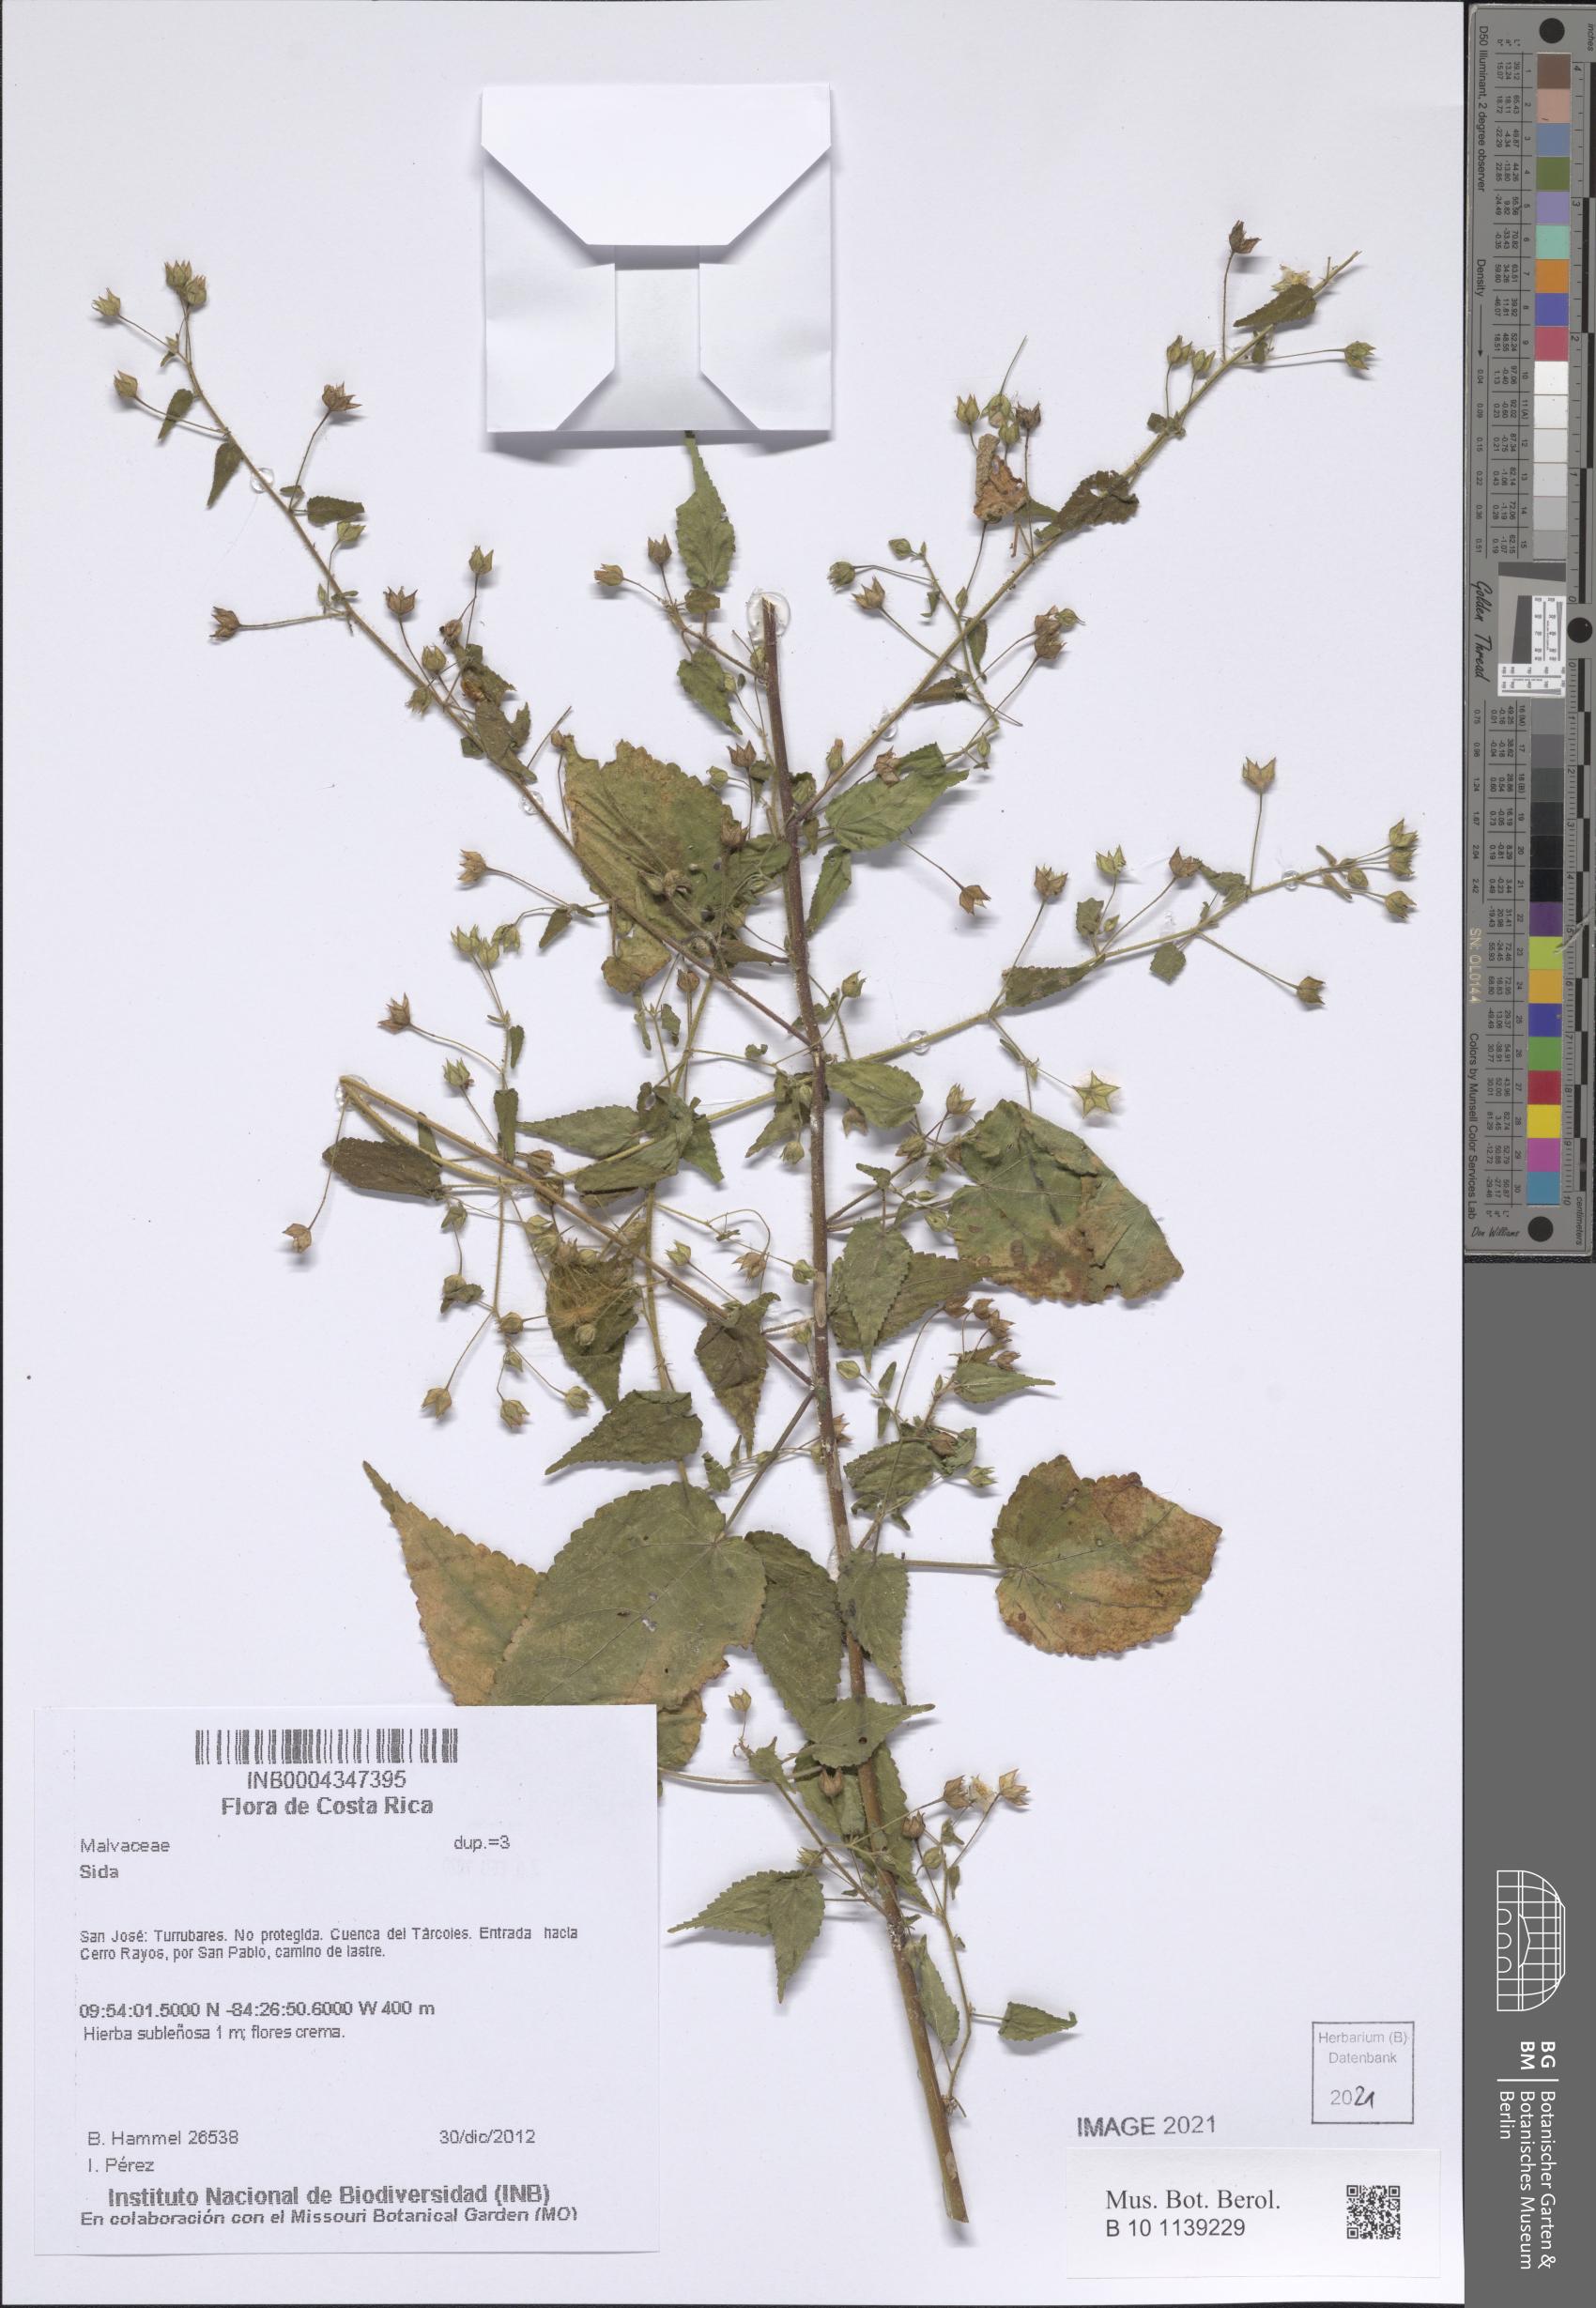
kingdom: Plantae
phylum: Tracheophyta
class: Magnoliopsida
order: Malvales
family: Malvaceae
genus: Sida
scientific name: Sida glabra
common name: Smooth fanpetals
